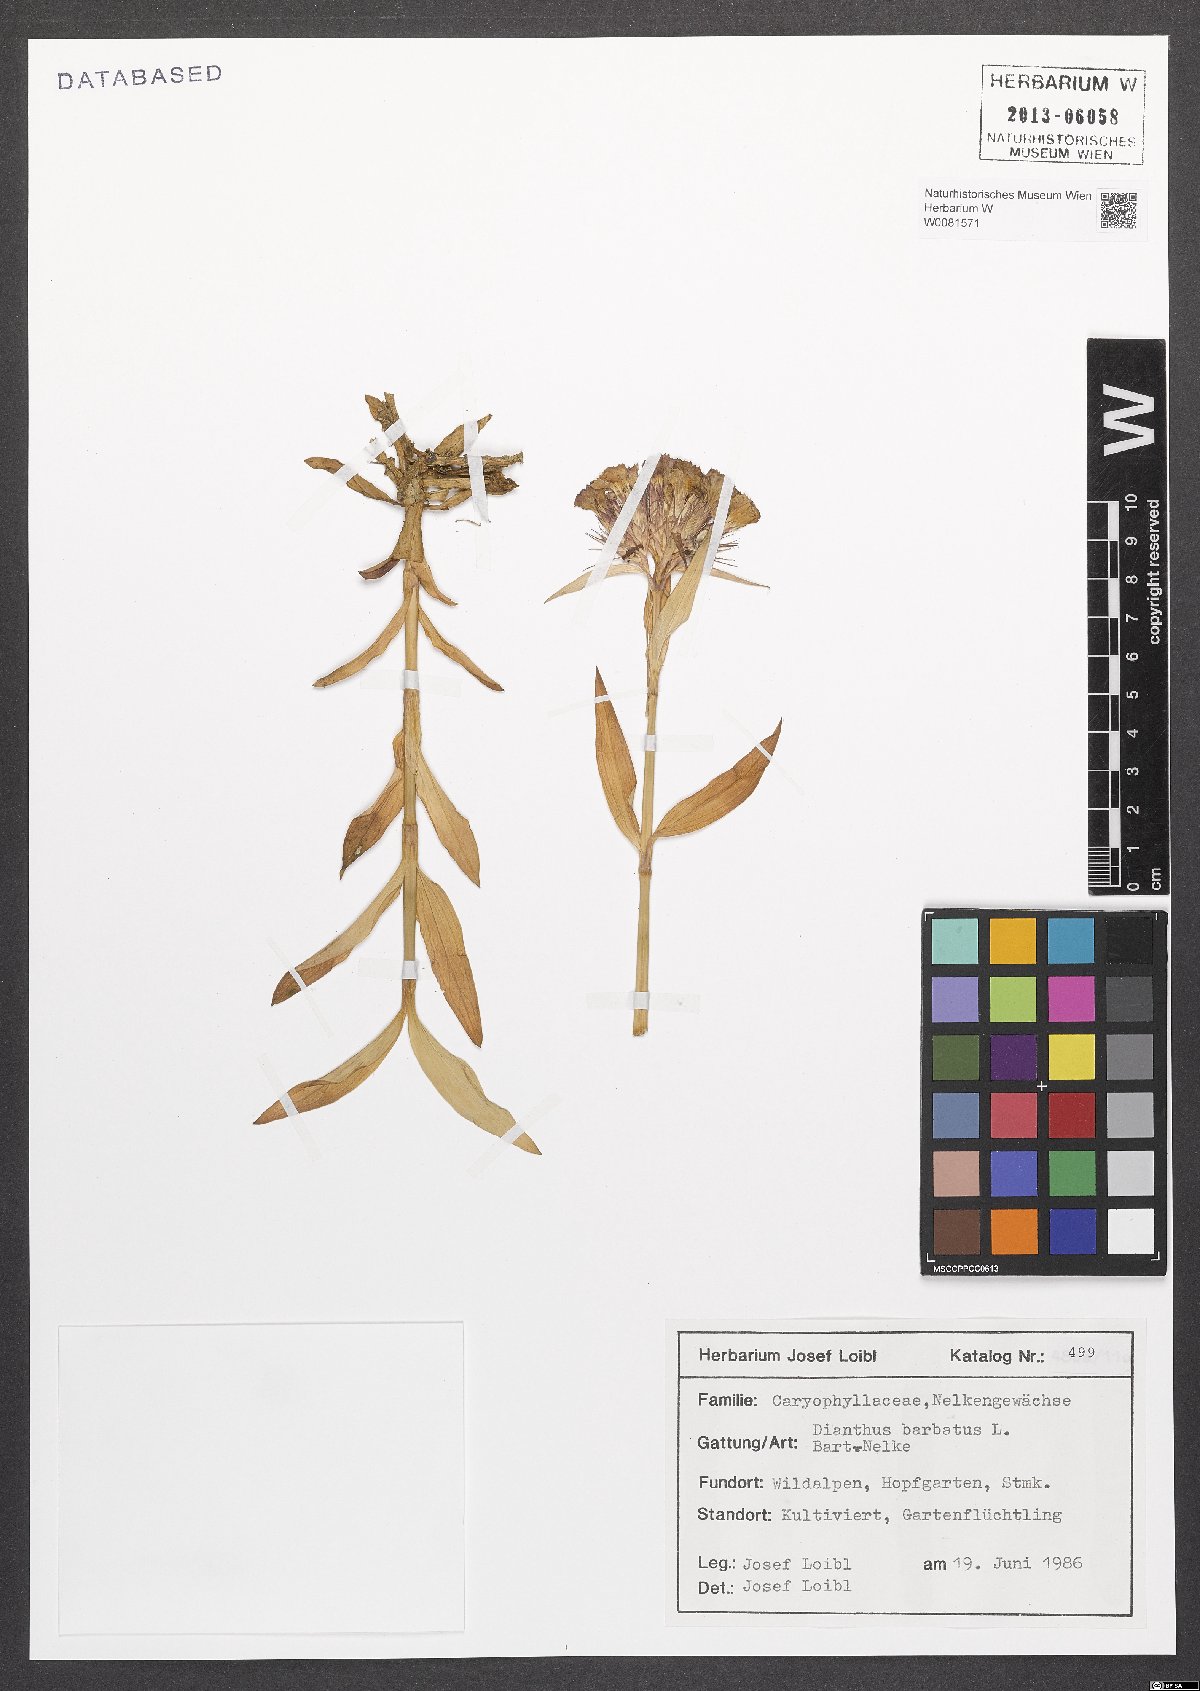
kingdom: Plantae
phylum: Tracheophyta
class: Magnoliopsida
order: Caryophyllales
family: Caryophyllaceae
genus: Dianthus
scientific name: Dianthus barbatus
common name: Sweet-william
